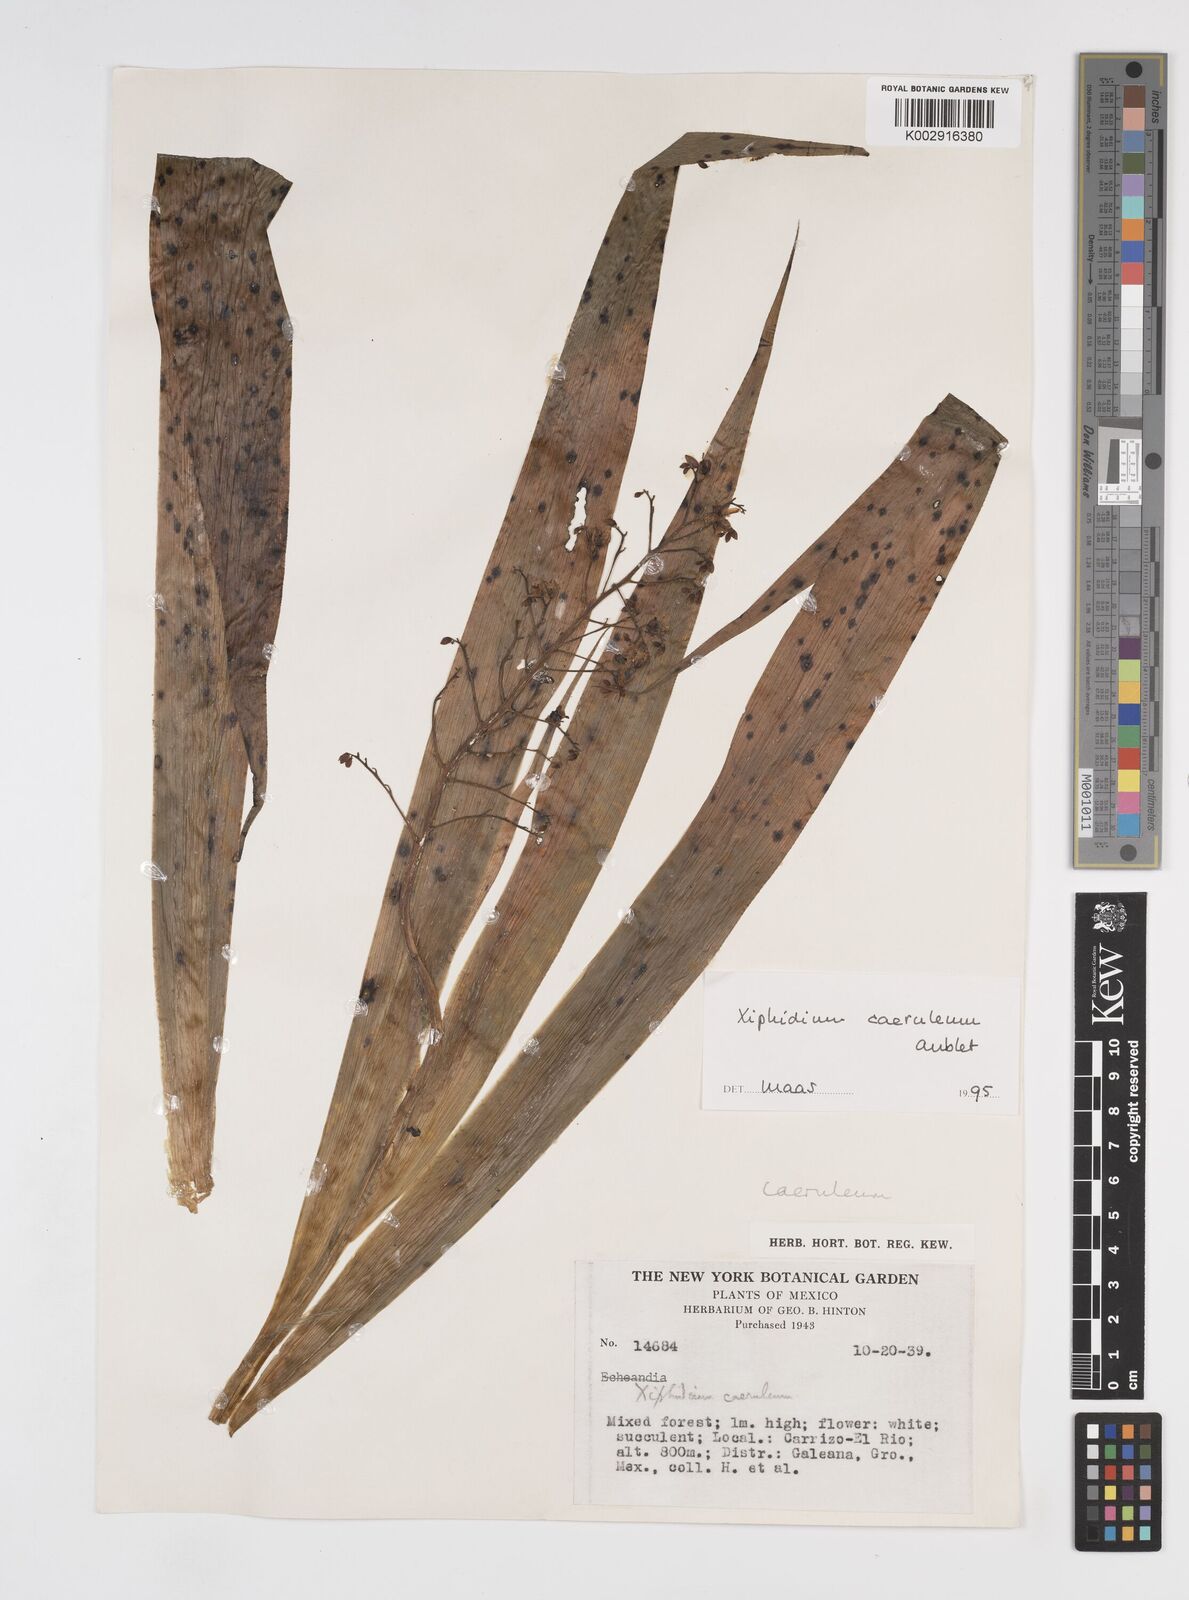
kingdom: Plantae
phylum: Tracheophyta
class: Liliopsida
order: Commelinales
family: Haemodoraceae
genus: Xiphidium
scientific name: Xiphidium caeruleum
